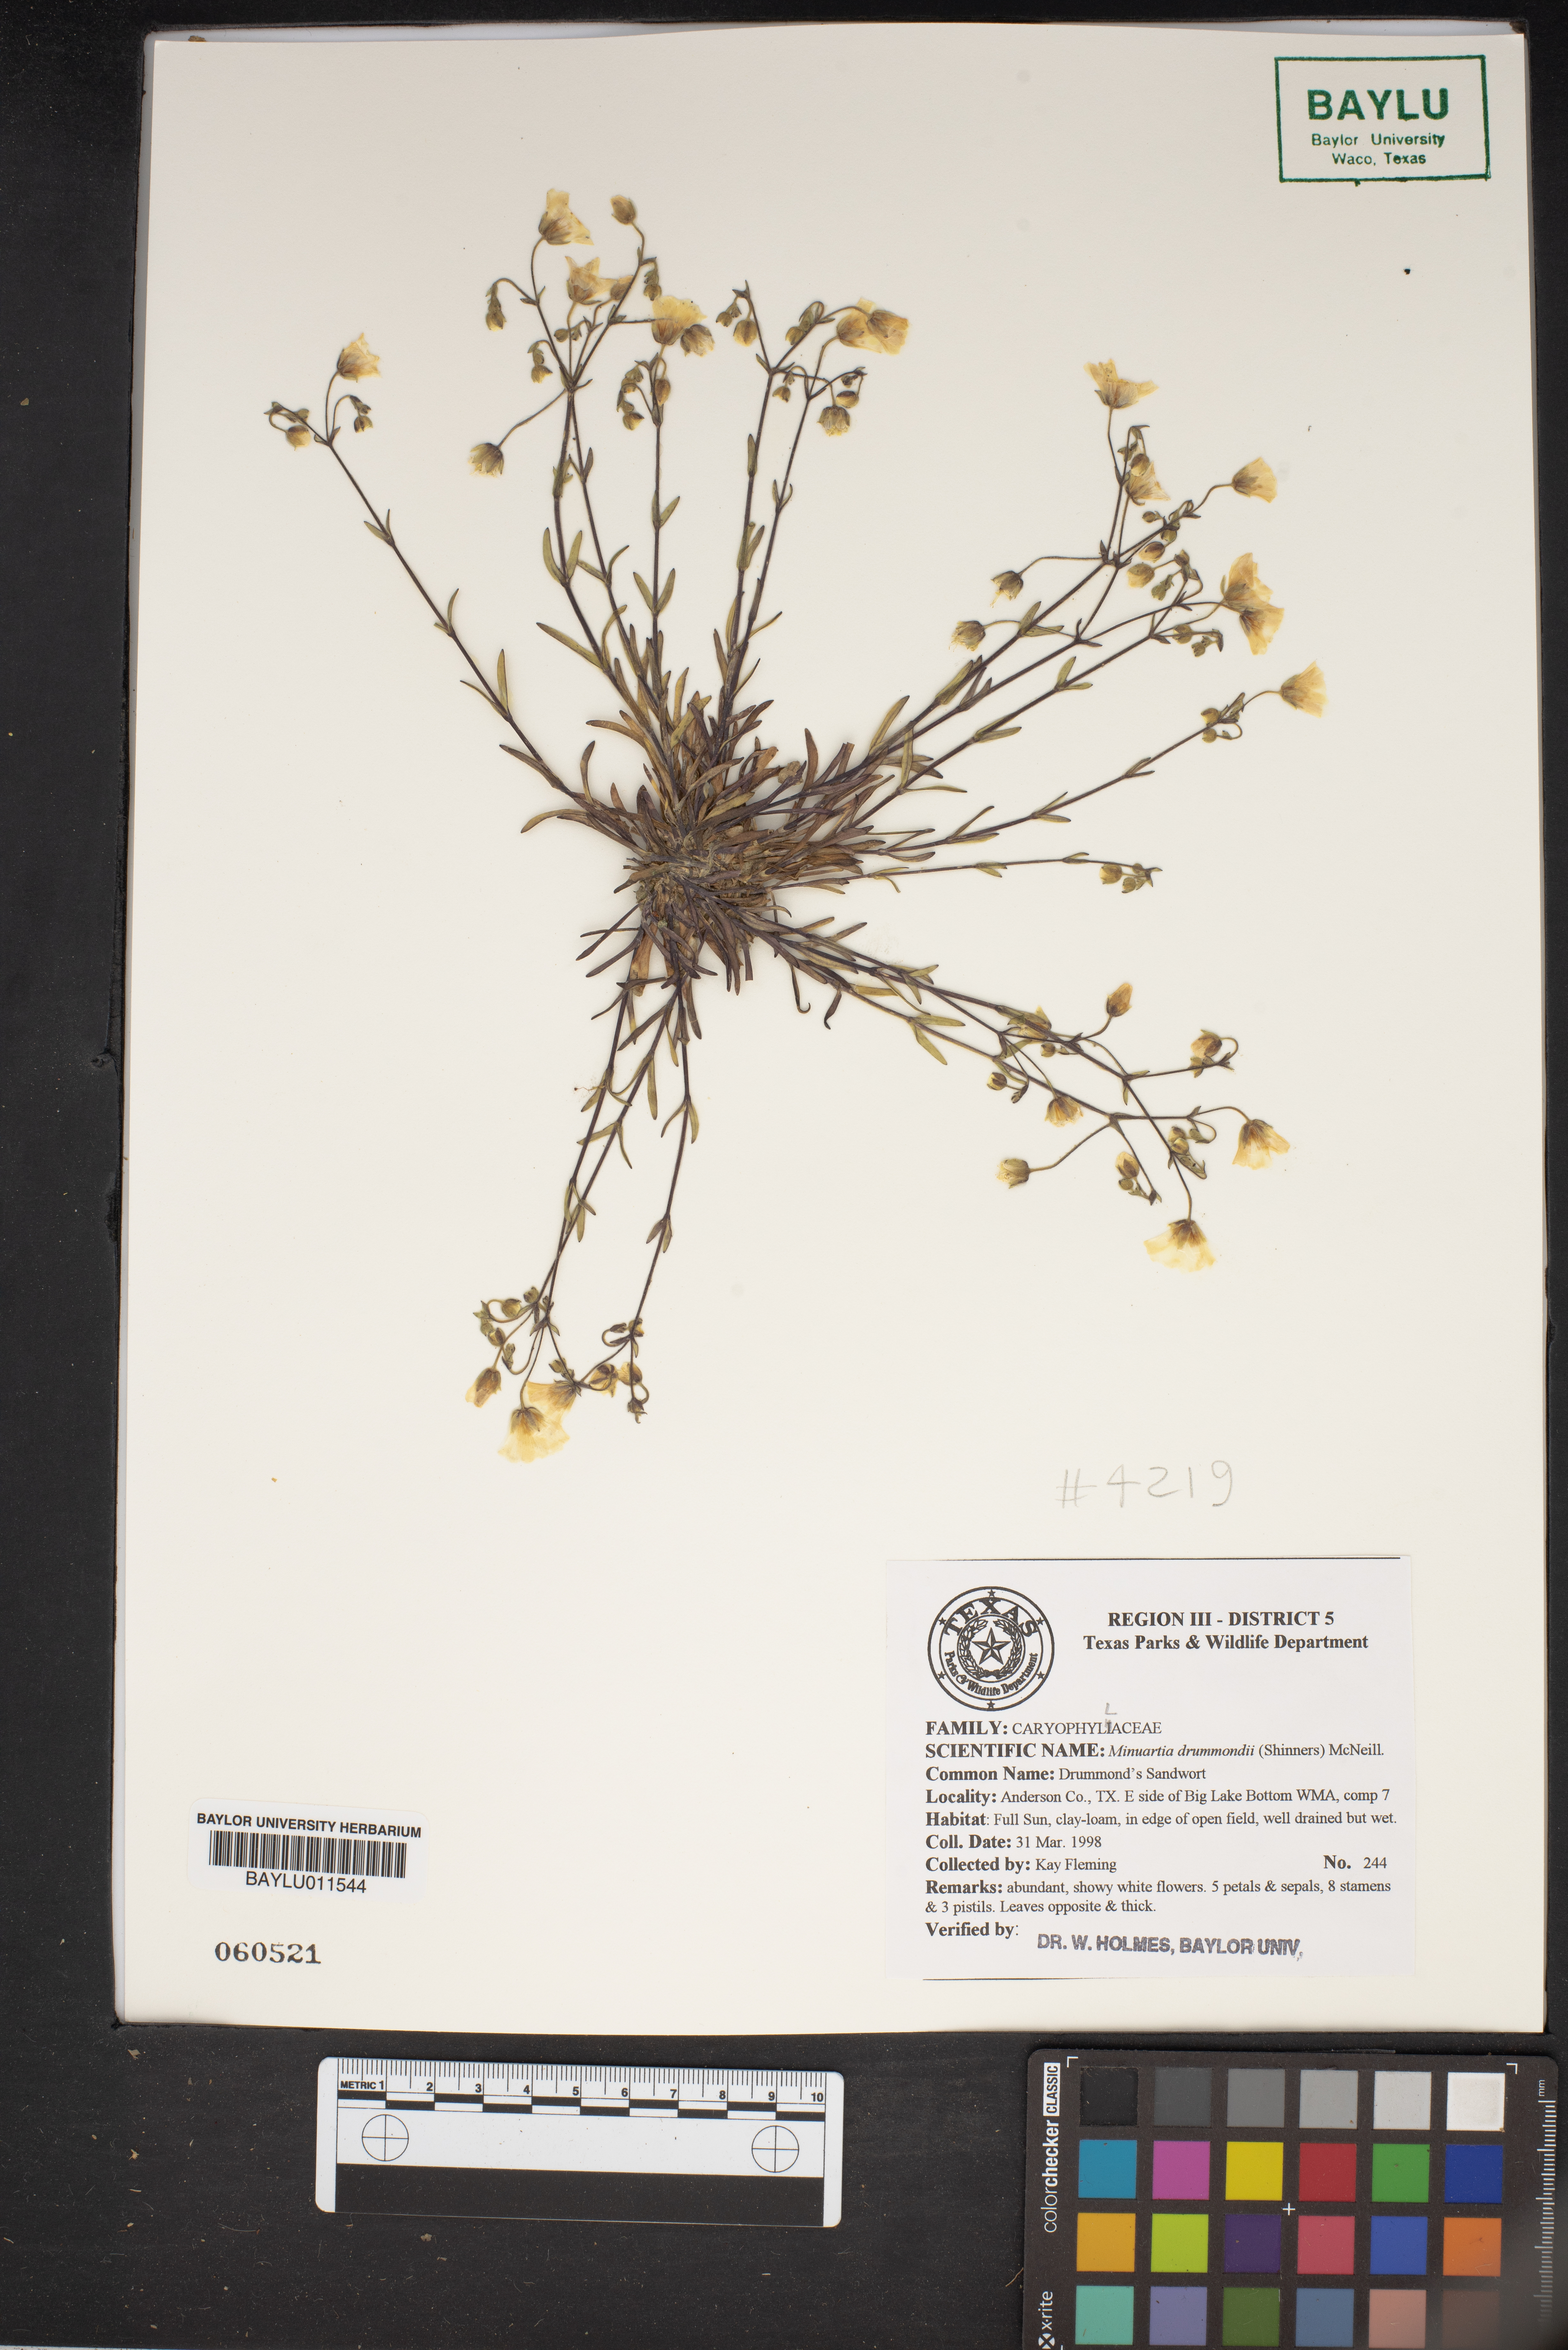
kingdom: Plantae
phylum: Tracheophyta
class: Magnoliopsida
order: Caryophyllales
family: Caryophyllaceae
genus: Geocarpon
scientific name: Geocarpon nuttallii
